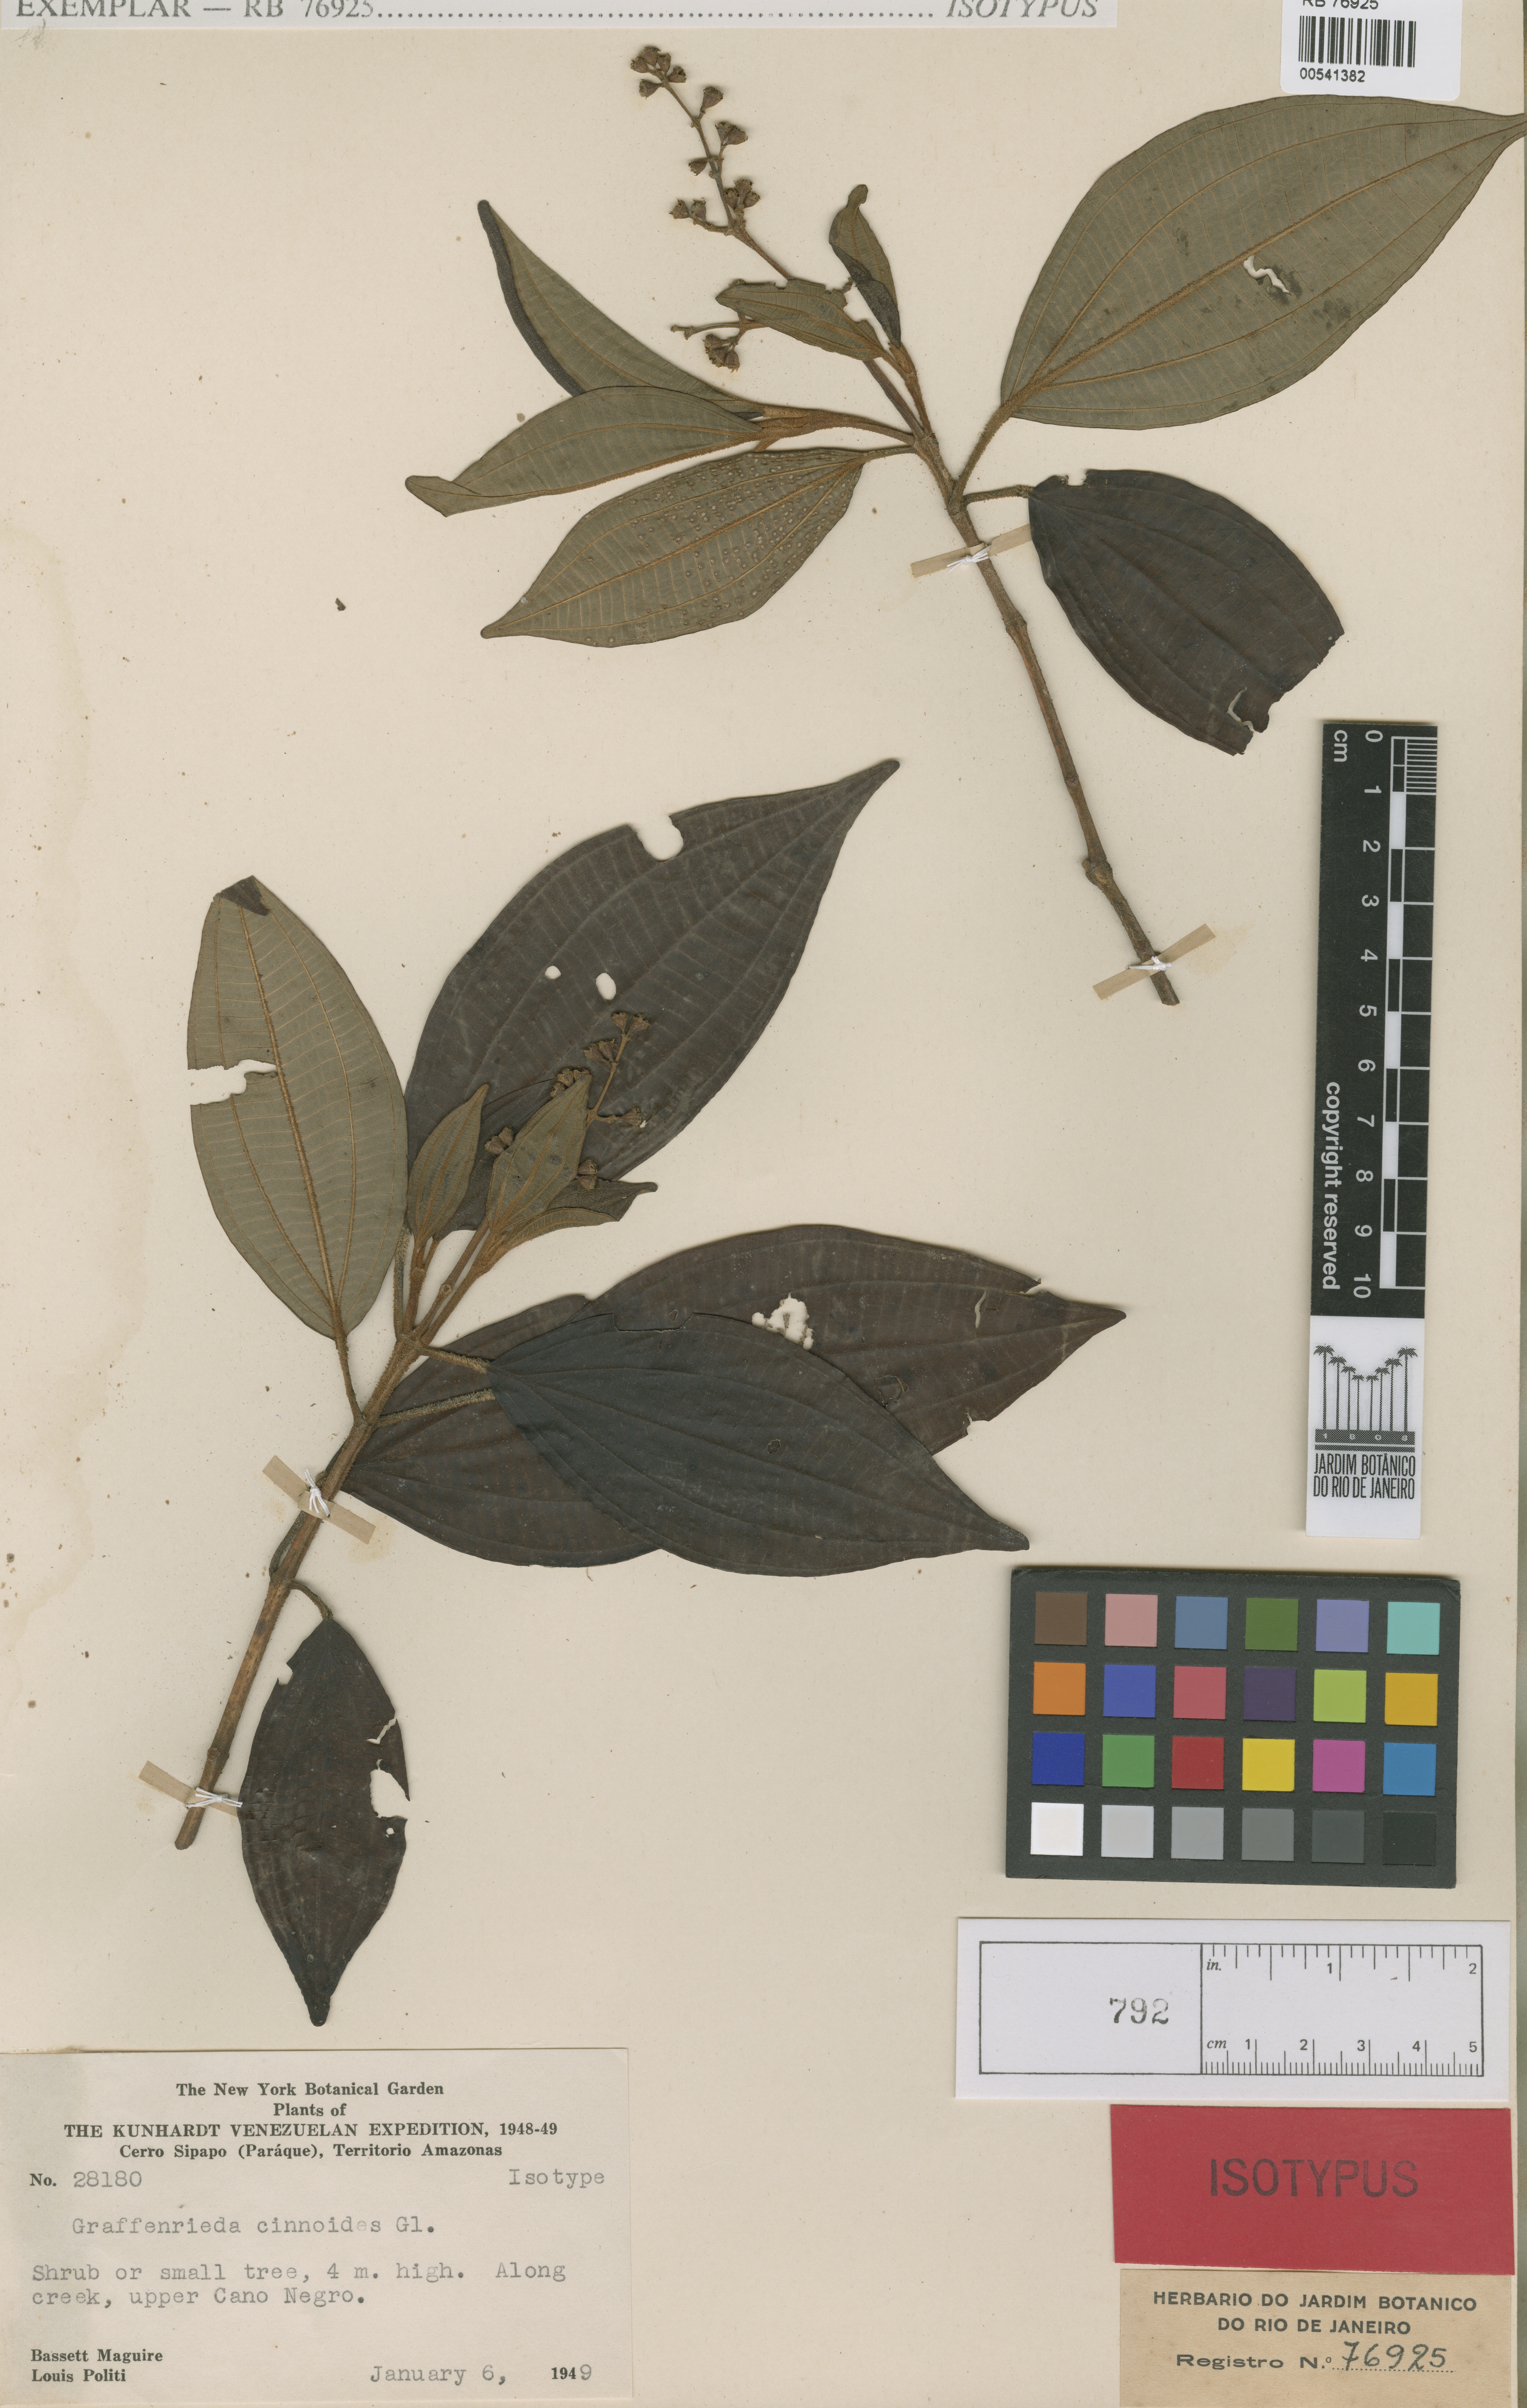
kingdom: Plantae
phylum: Tracheophyta
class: Magnoliopsida
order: Myrtales
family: Melastomataceae
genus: Graffenrieda
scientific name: Graffenrieda cinnoides
